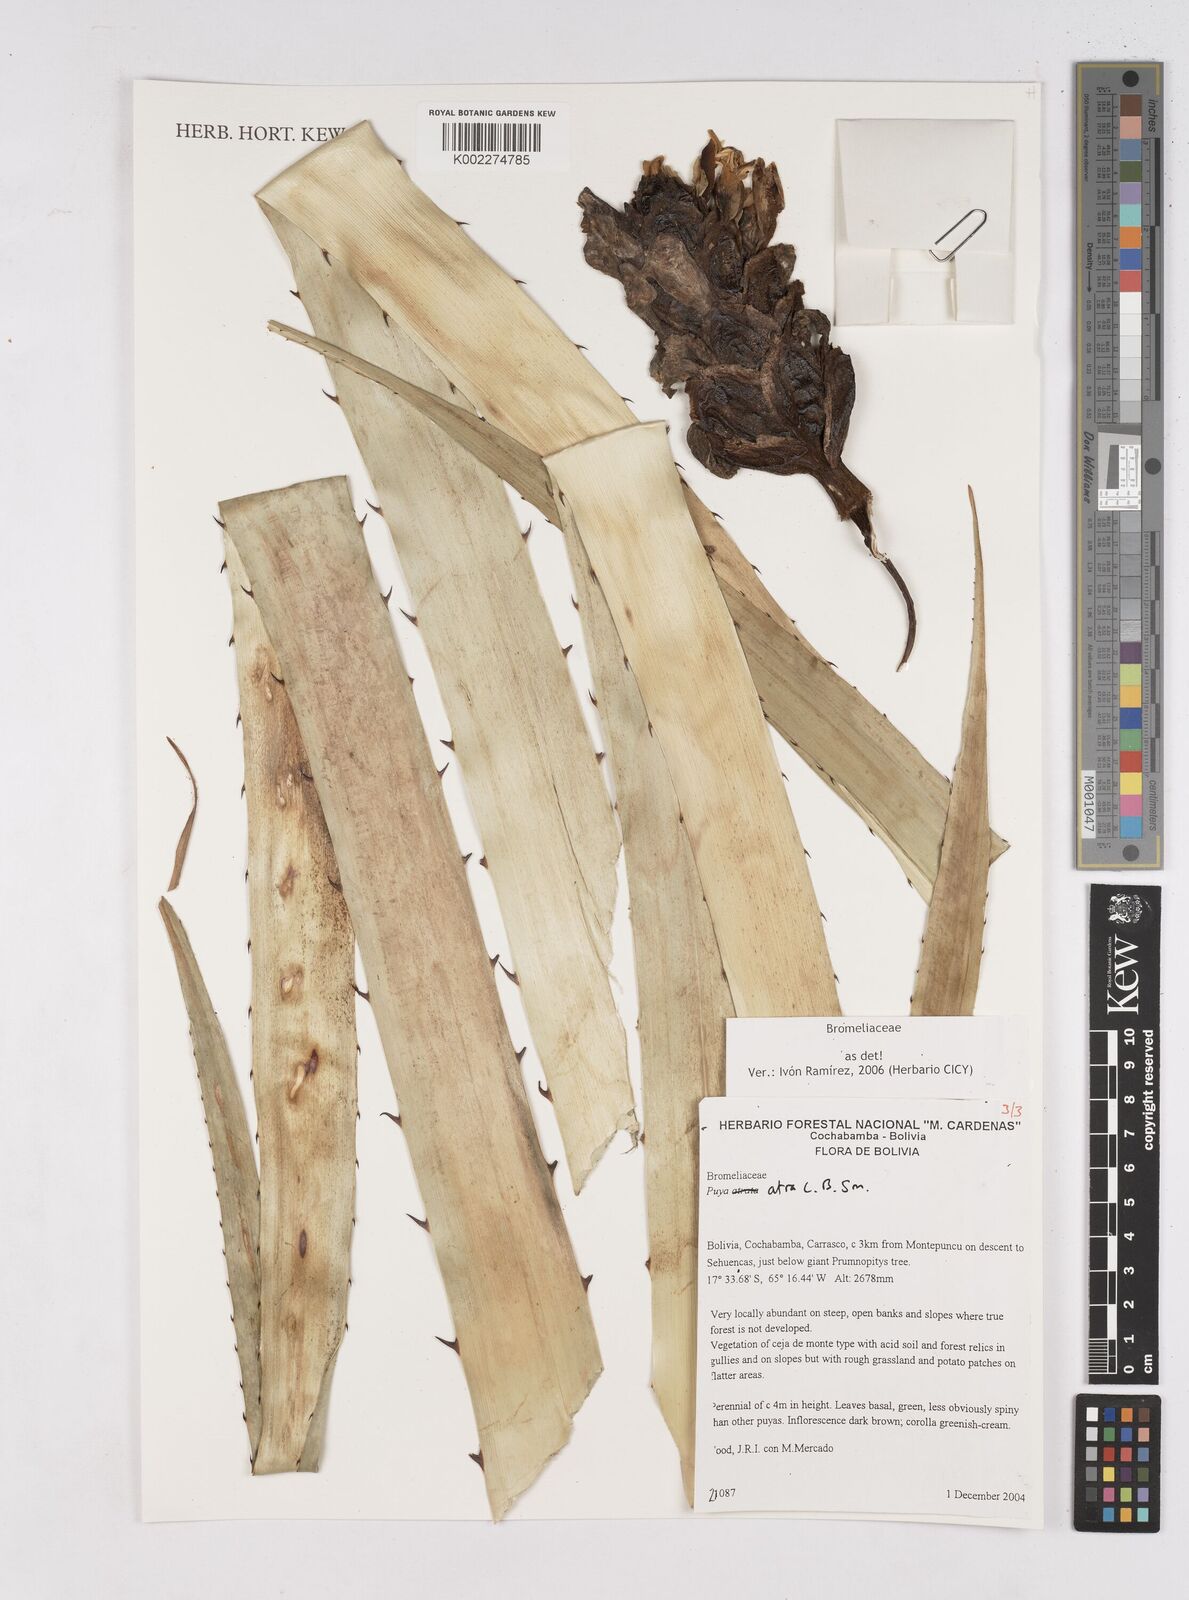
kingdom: Plantae
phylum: Tracheophyta
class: Liliopsida
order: Poales
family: Bromeliaceae
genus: Puya
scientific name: Puya atra
